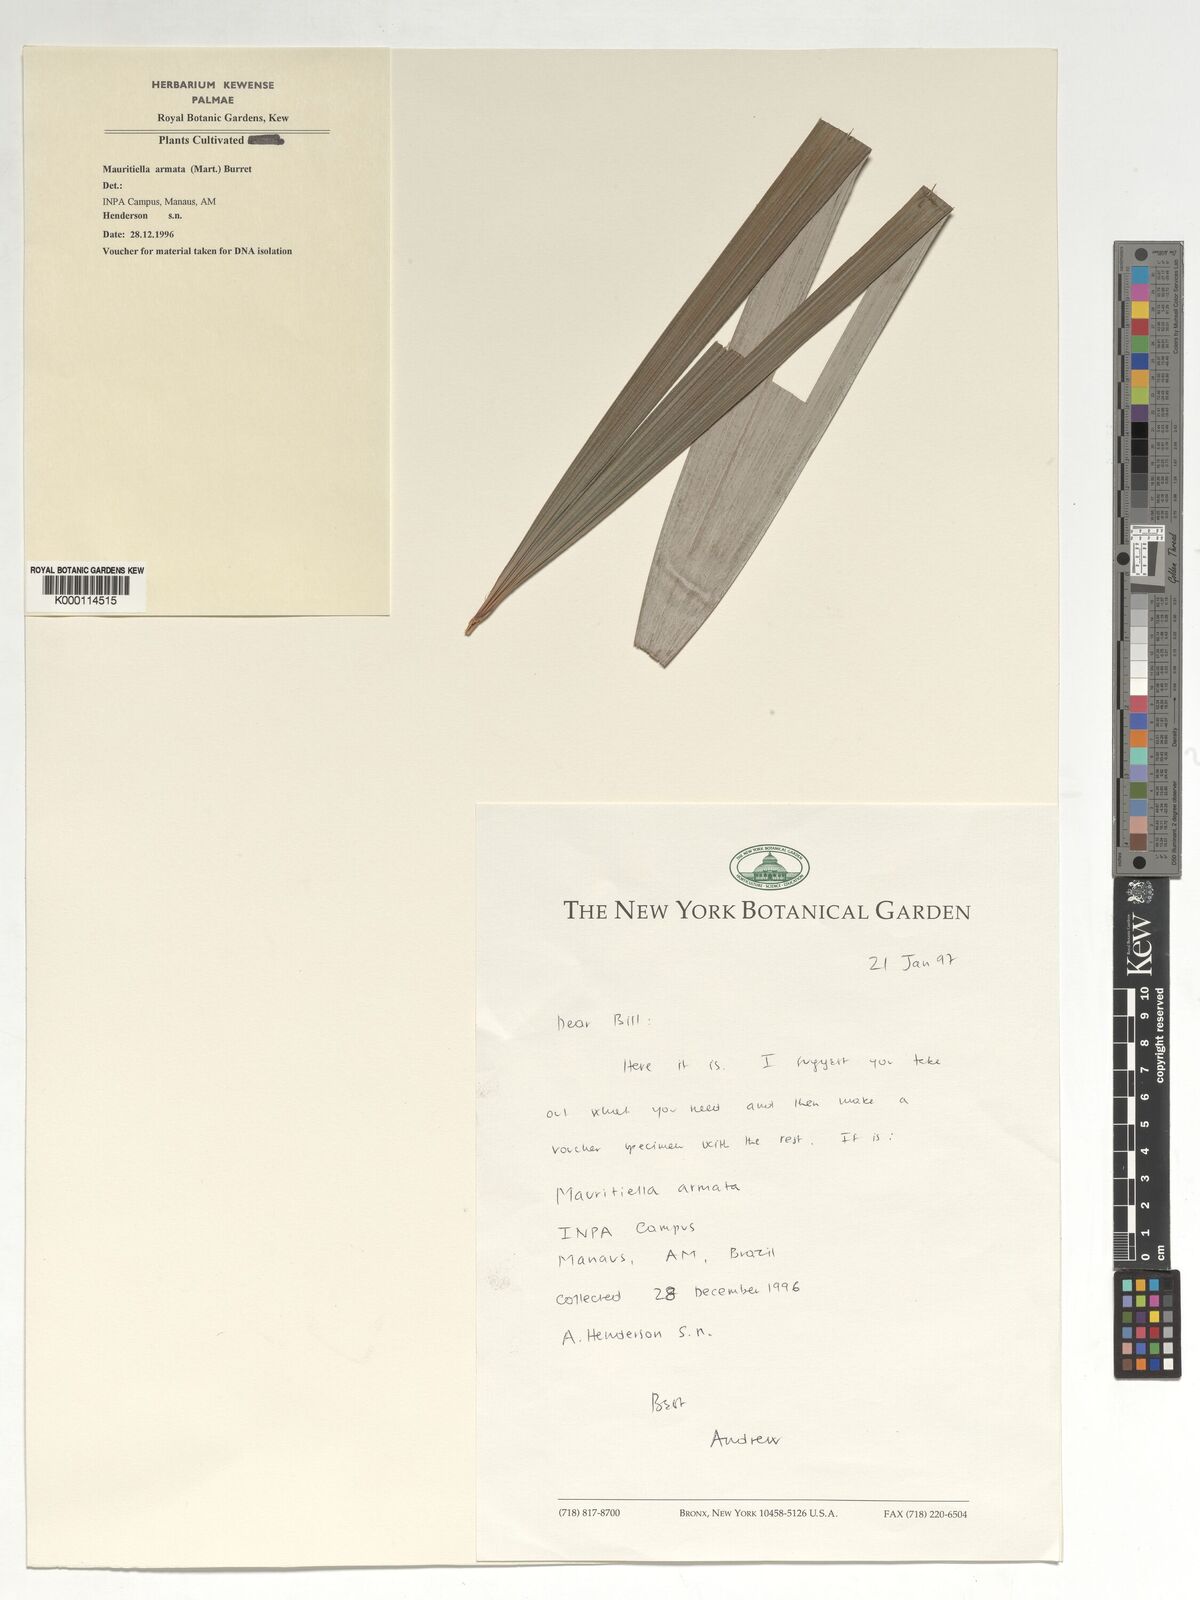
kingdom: Plantae
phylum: Tracheophyta
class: Liliopsida
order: Arecales
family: Arecaceae
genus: Mauritiella
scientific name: Mauritiella armata
